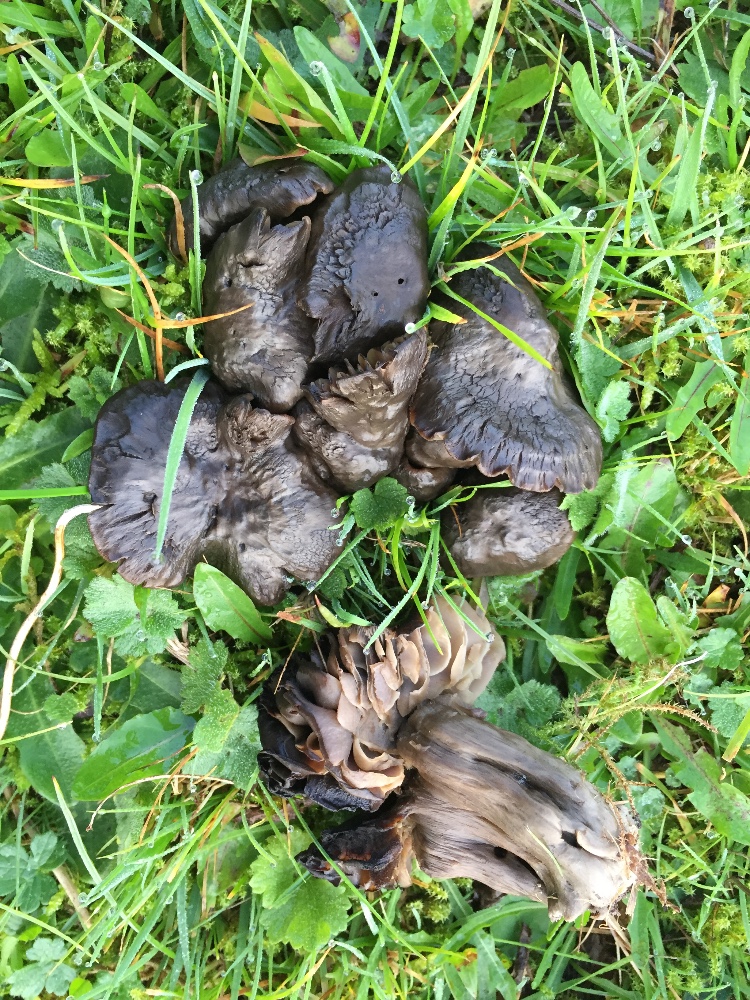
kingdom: Fungi
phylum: Basidiomycota
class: Agaricomycetes
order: Agaricales
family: Hygrophoraceae
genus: Neohygrocybe
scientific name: Neohygrocybe ovina
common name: rødmende vokshat
